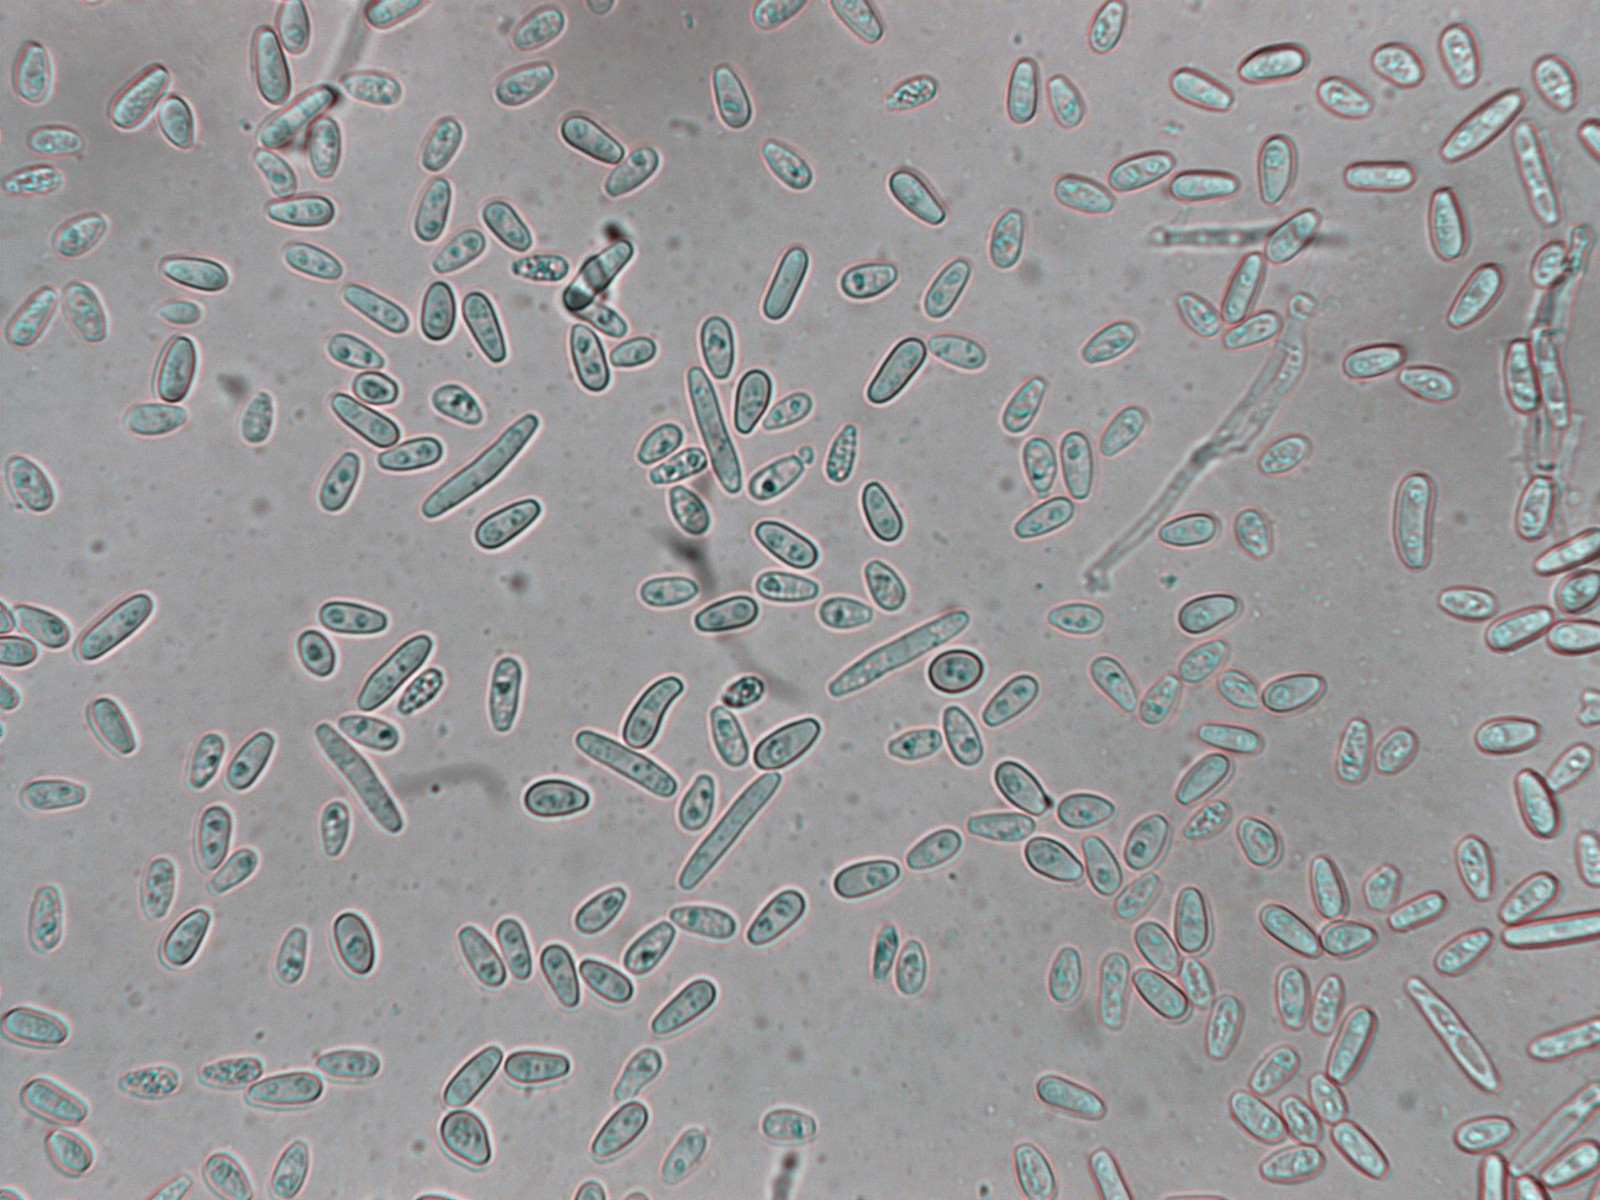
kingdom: Fungi
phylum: Ascomycota
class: Sordariomycetes
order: Xylariales
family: Hypoxylaceae
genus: Nodulisporium
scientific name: Nodulisporium cecidiogenes
